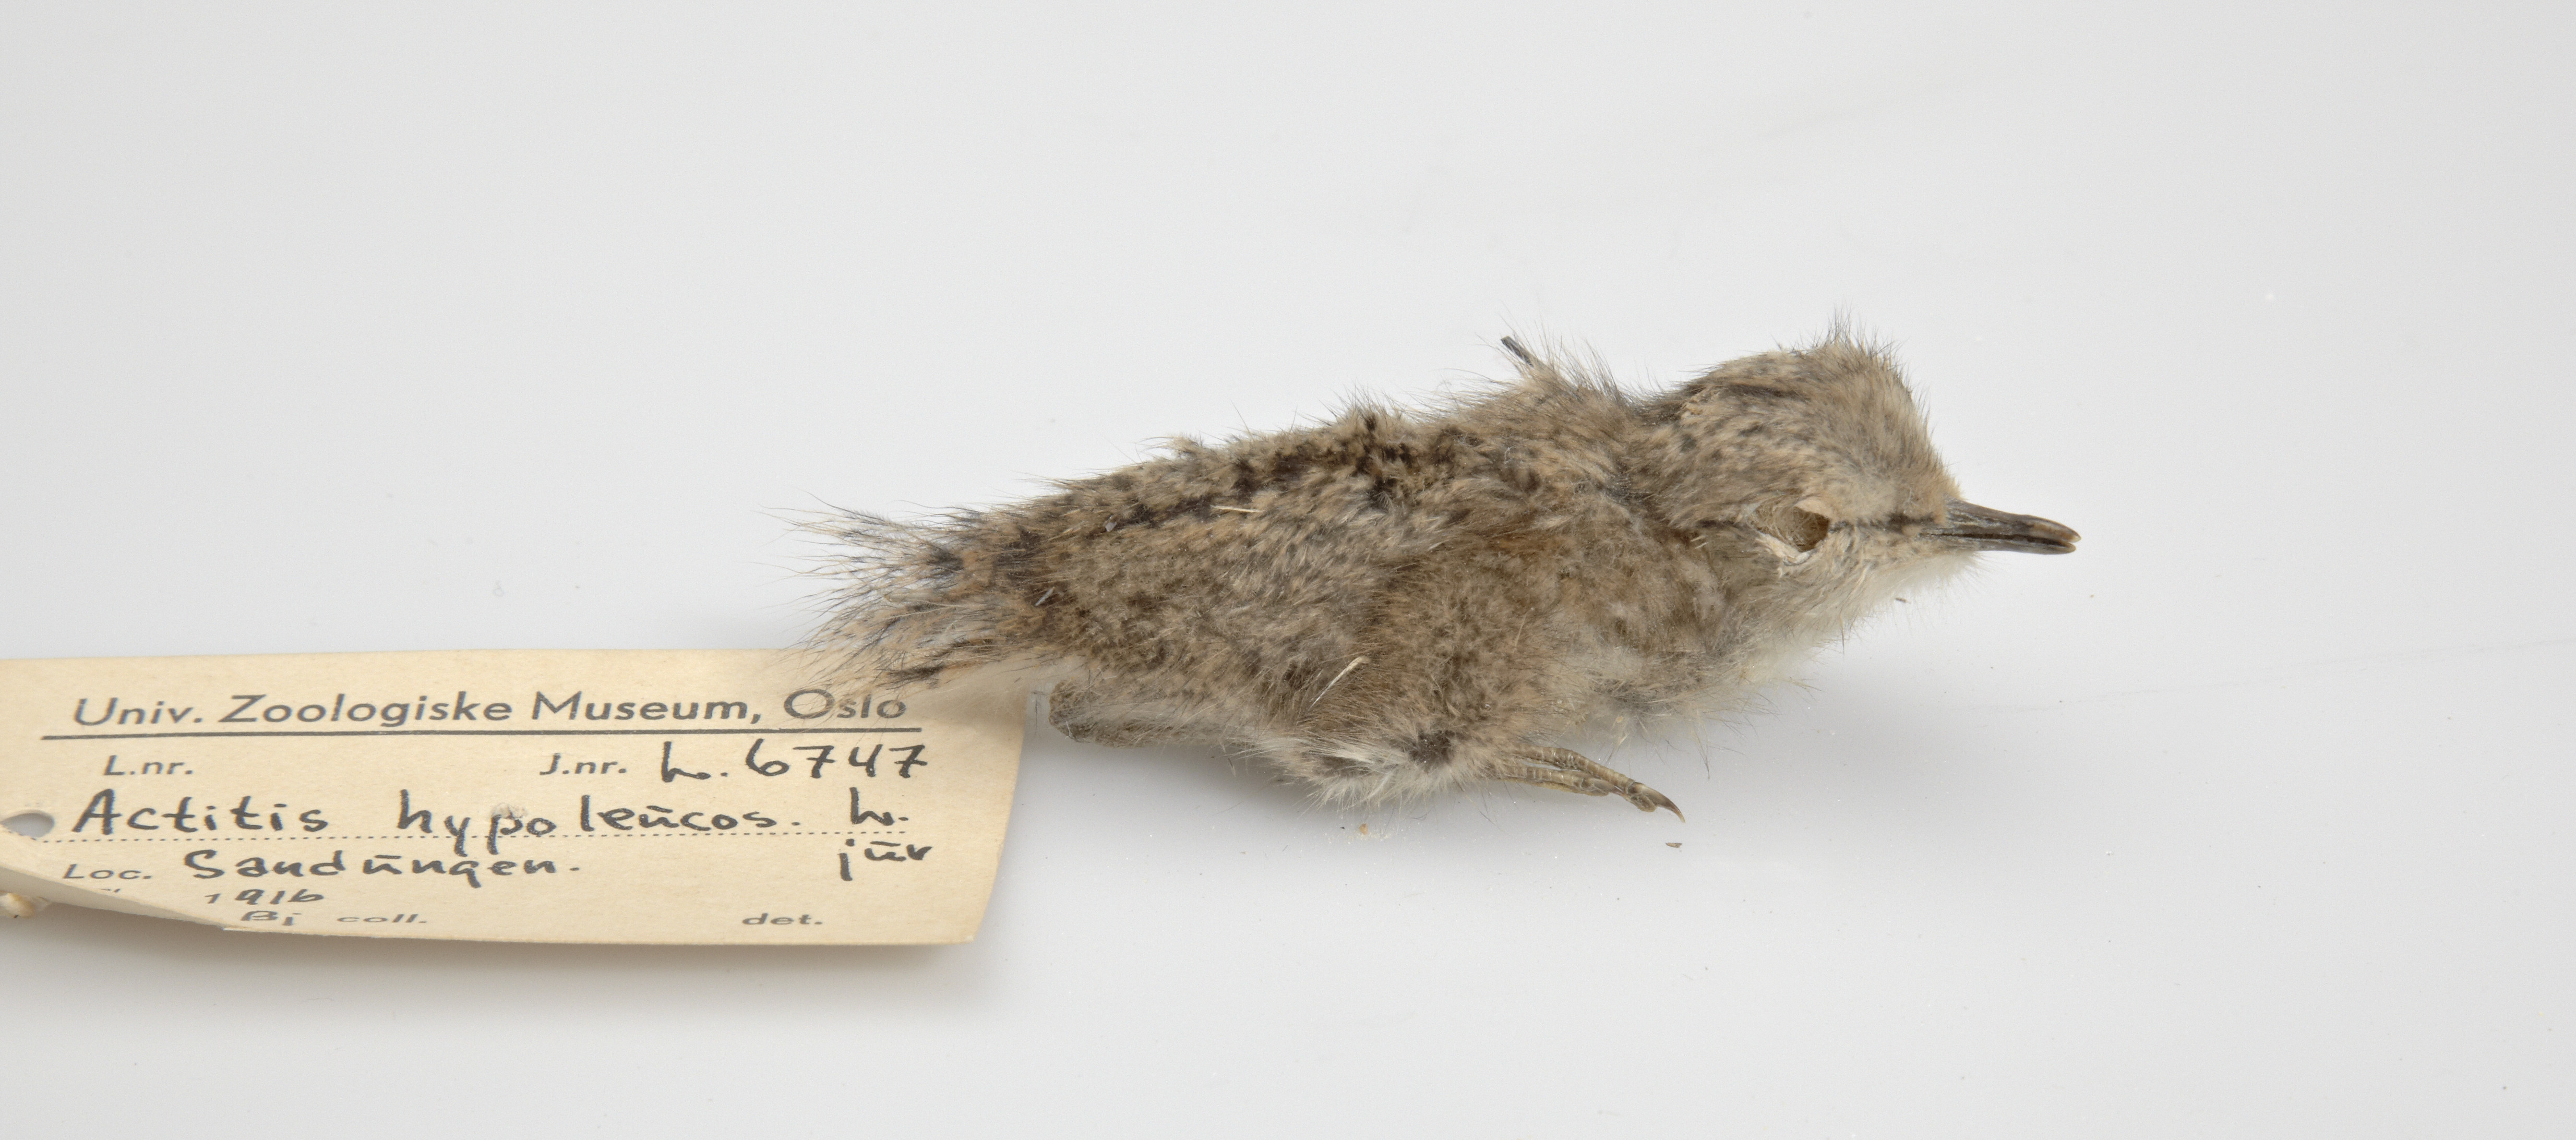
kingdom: Animalia
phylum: Chordata
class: Aves
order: Charadriiformes
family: Scolopacidae
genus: Actitis
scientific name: Actitis hypoleucos
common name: Common sandpiper
